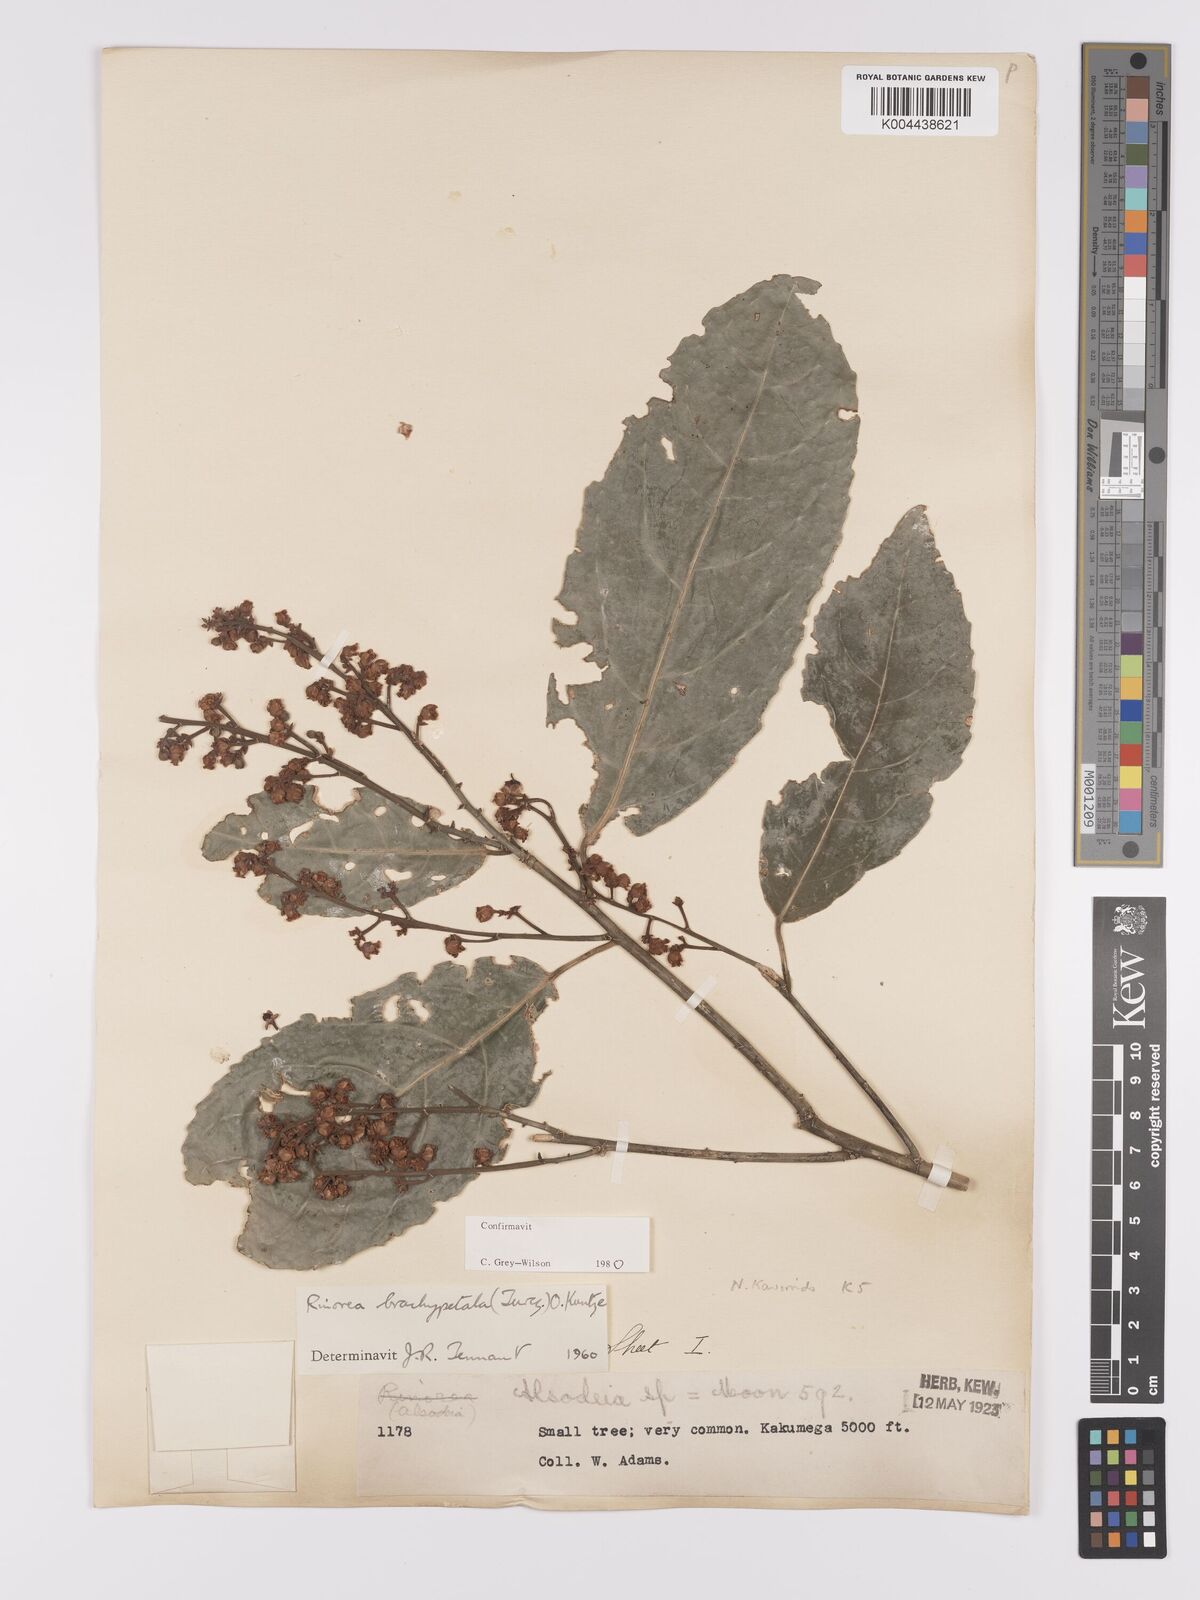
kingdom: Plantae
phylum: Tracheophyta
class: Magnoliopsida
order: Malpighiales
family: Violaceae
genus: Rinorea
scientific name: Rinorea brachypetala
